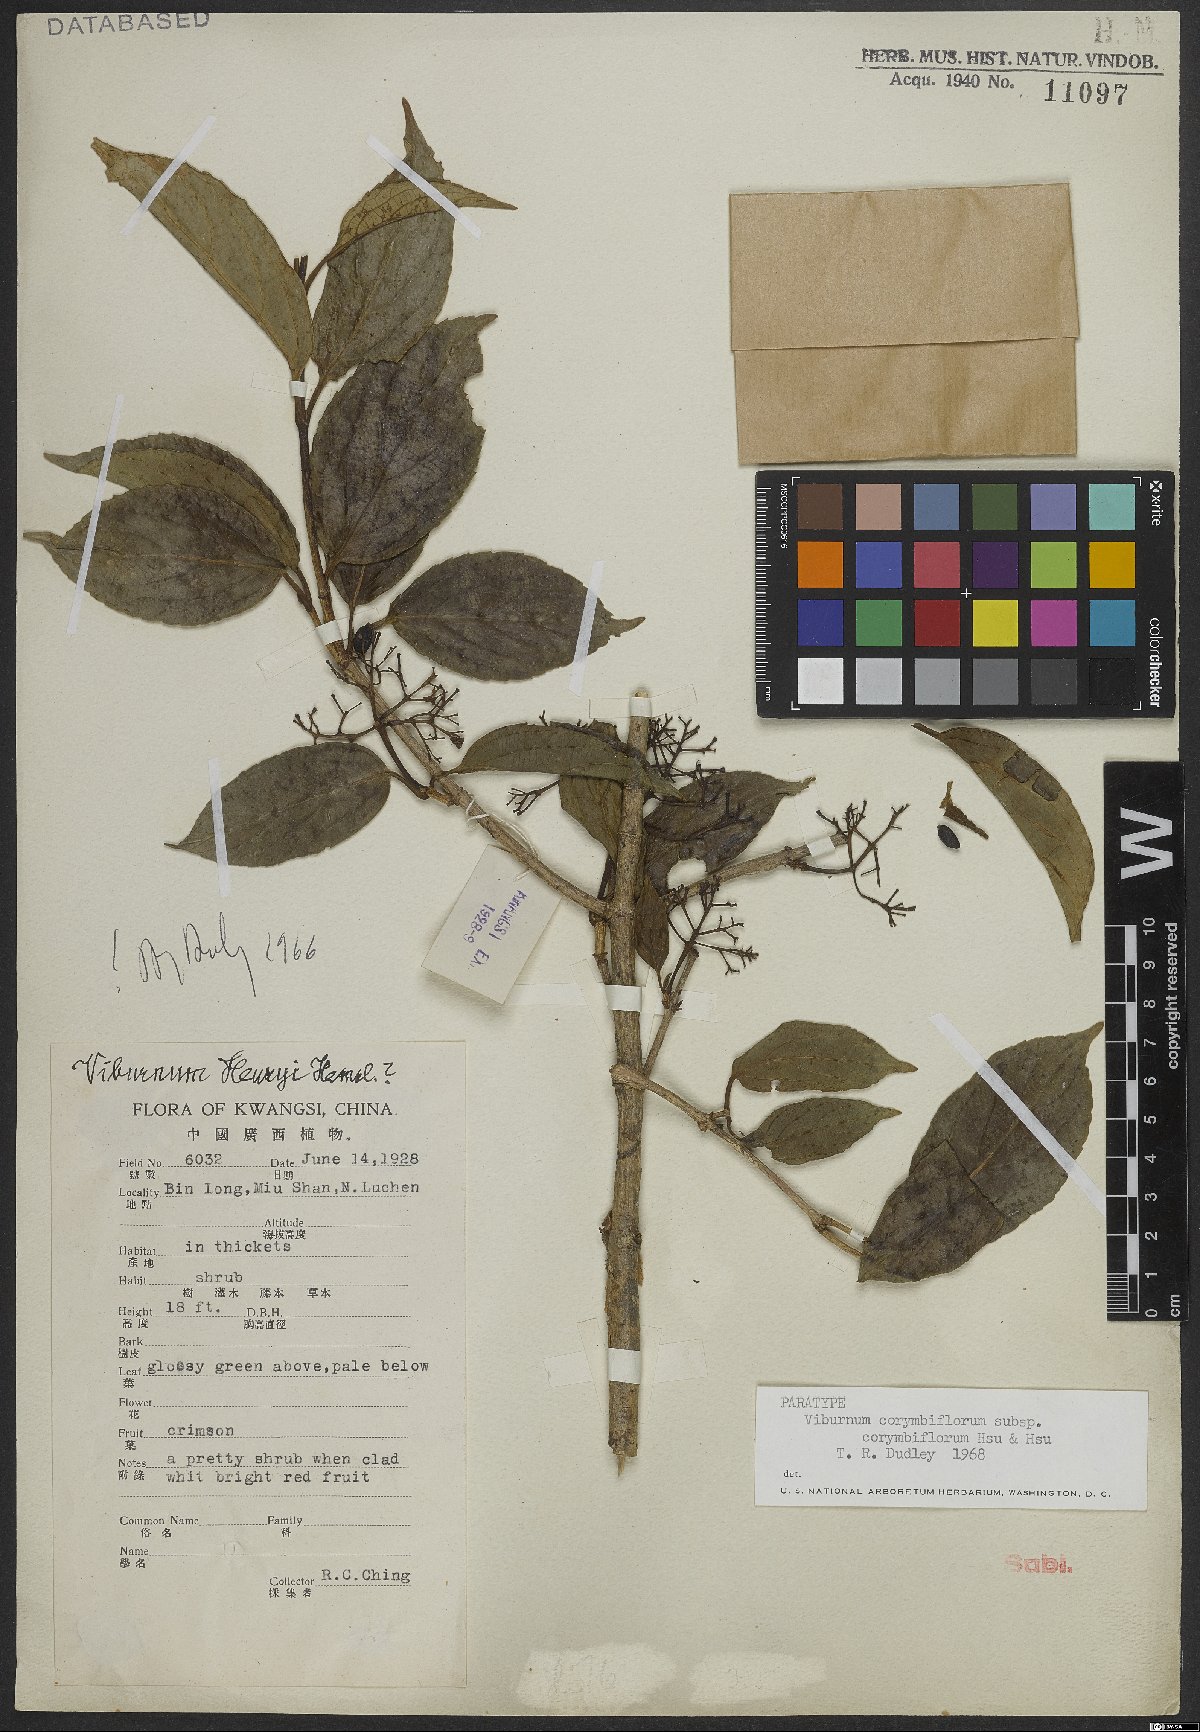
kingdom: Plantae
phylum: Tracheophyta
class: Magnoliopsida
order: Dipsacales
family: Viburnaceae
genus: Viburnum
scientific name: Viburnum corymbiflorum
